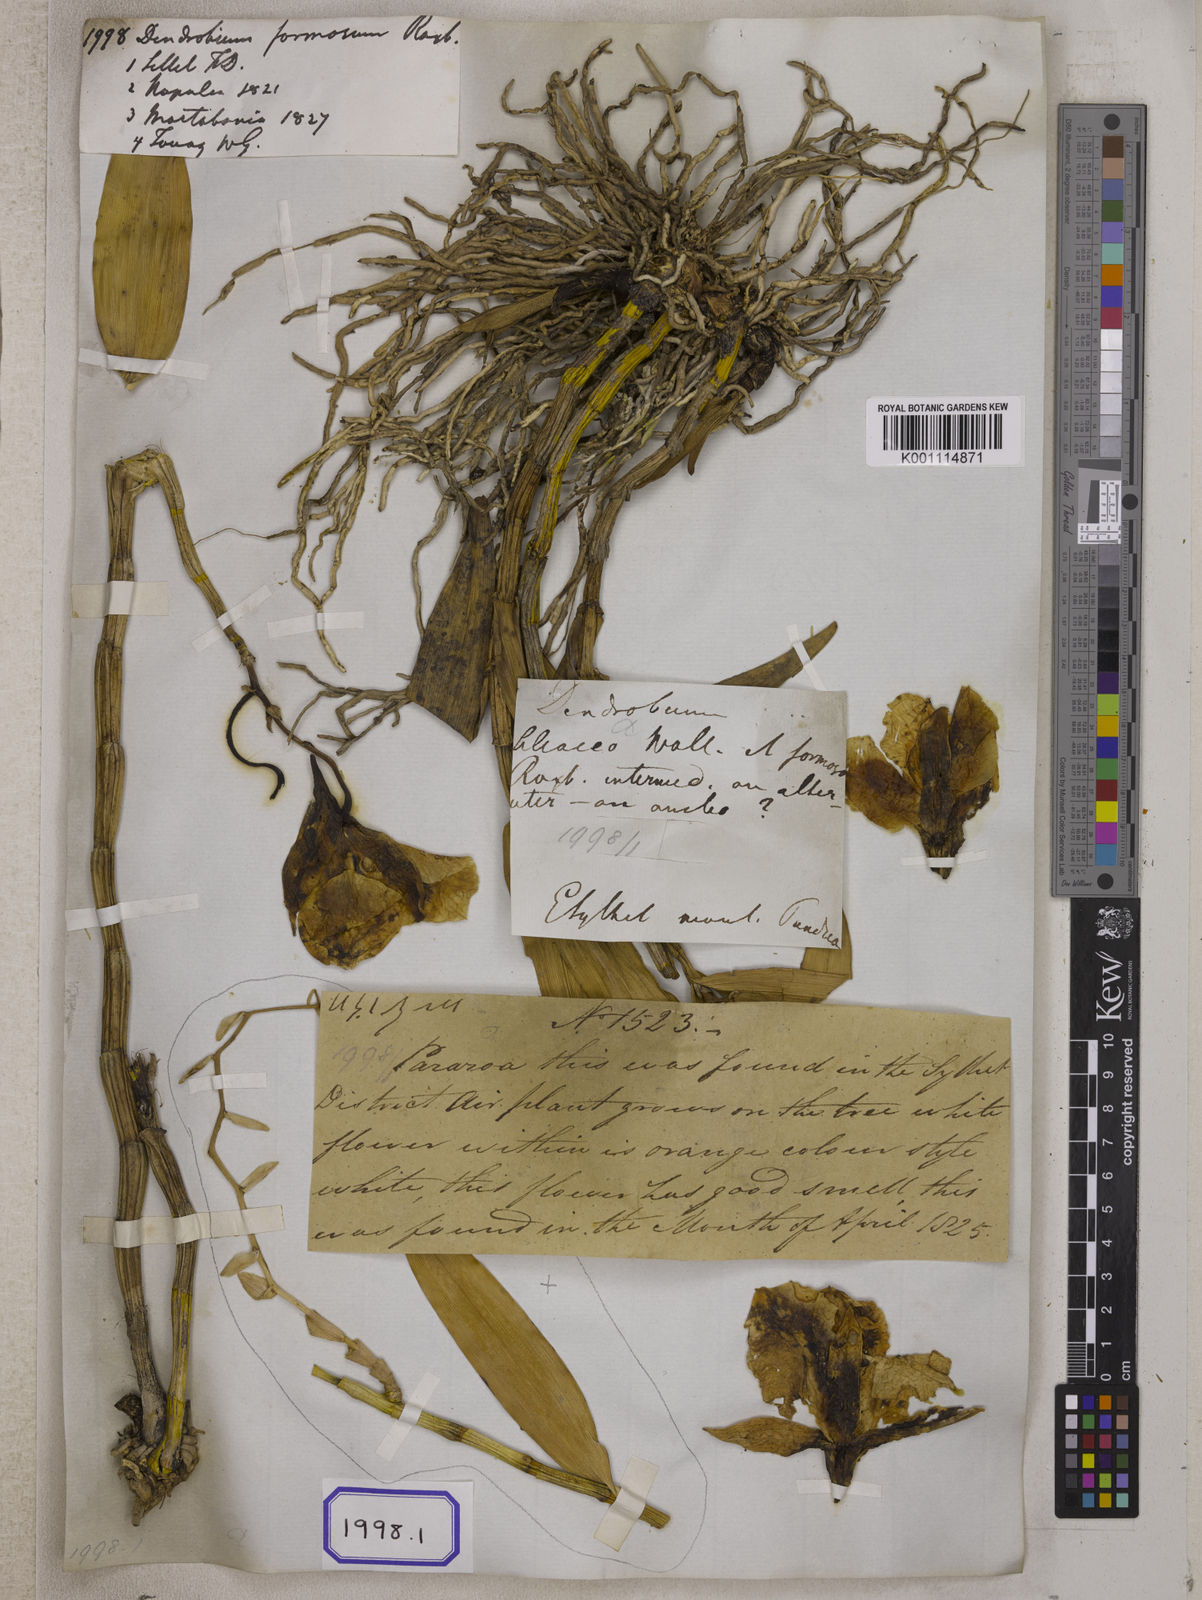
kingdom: Plantae
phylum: Tracheophyta
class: Liliopsida
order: Asparagales
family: Orchidaceae
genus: Dendrobium
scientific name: Dendrobium
